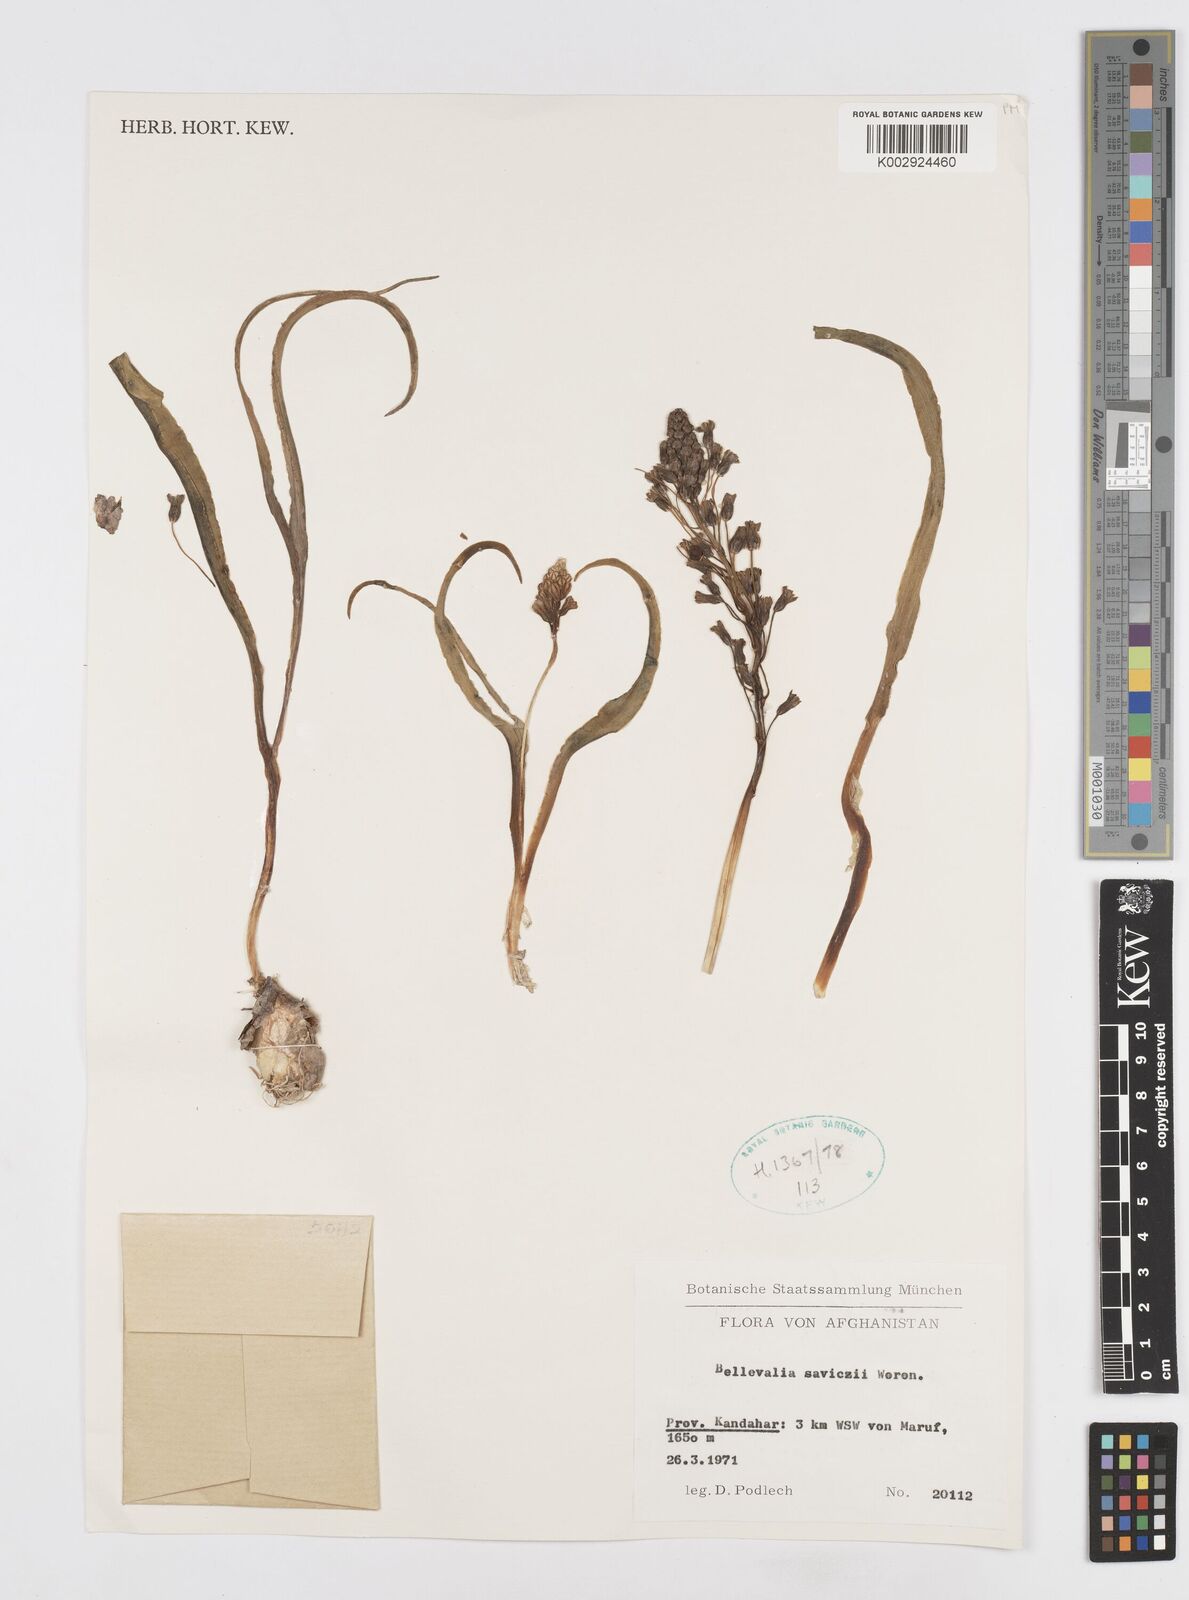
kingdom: Plantae
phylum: Tracheophyta
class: Liliopsida
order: Asparagales
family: Asparagaceae
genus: Bellevalia
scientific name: Bellevalia saviczii
